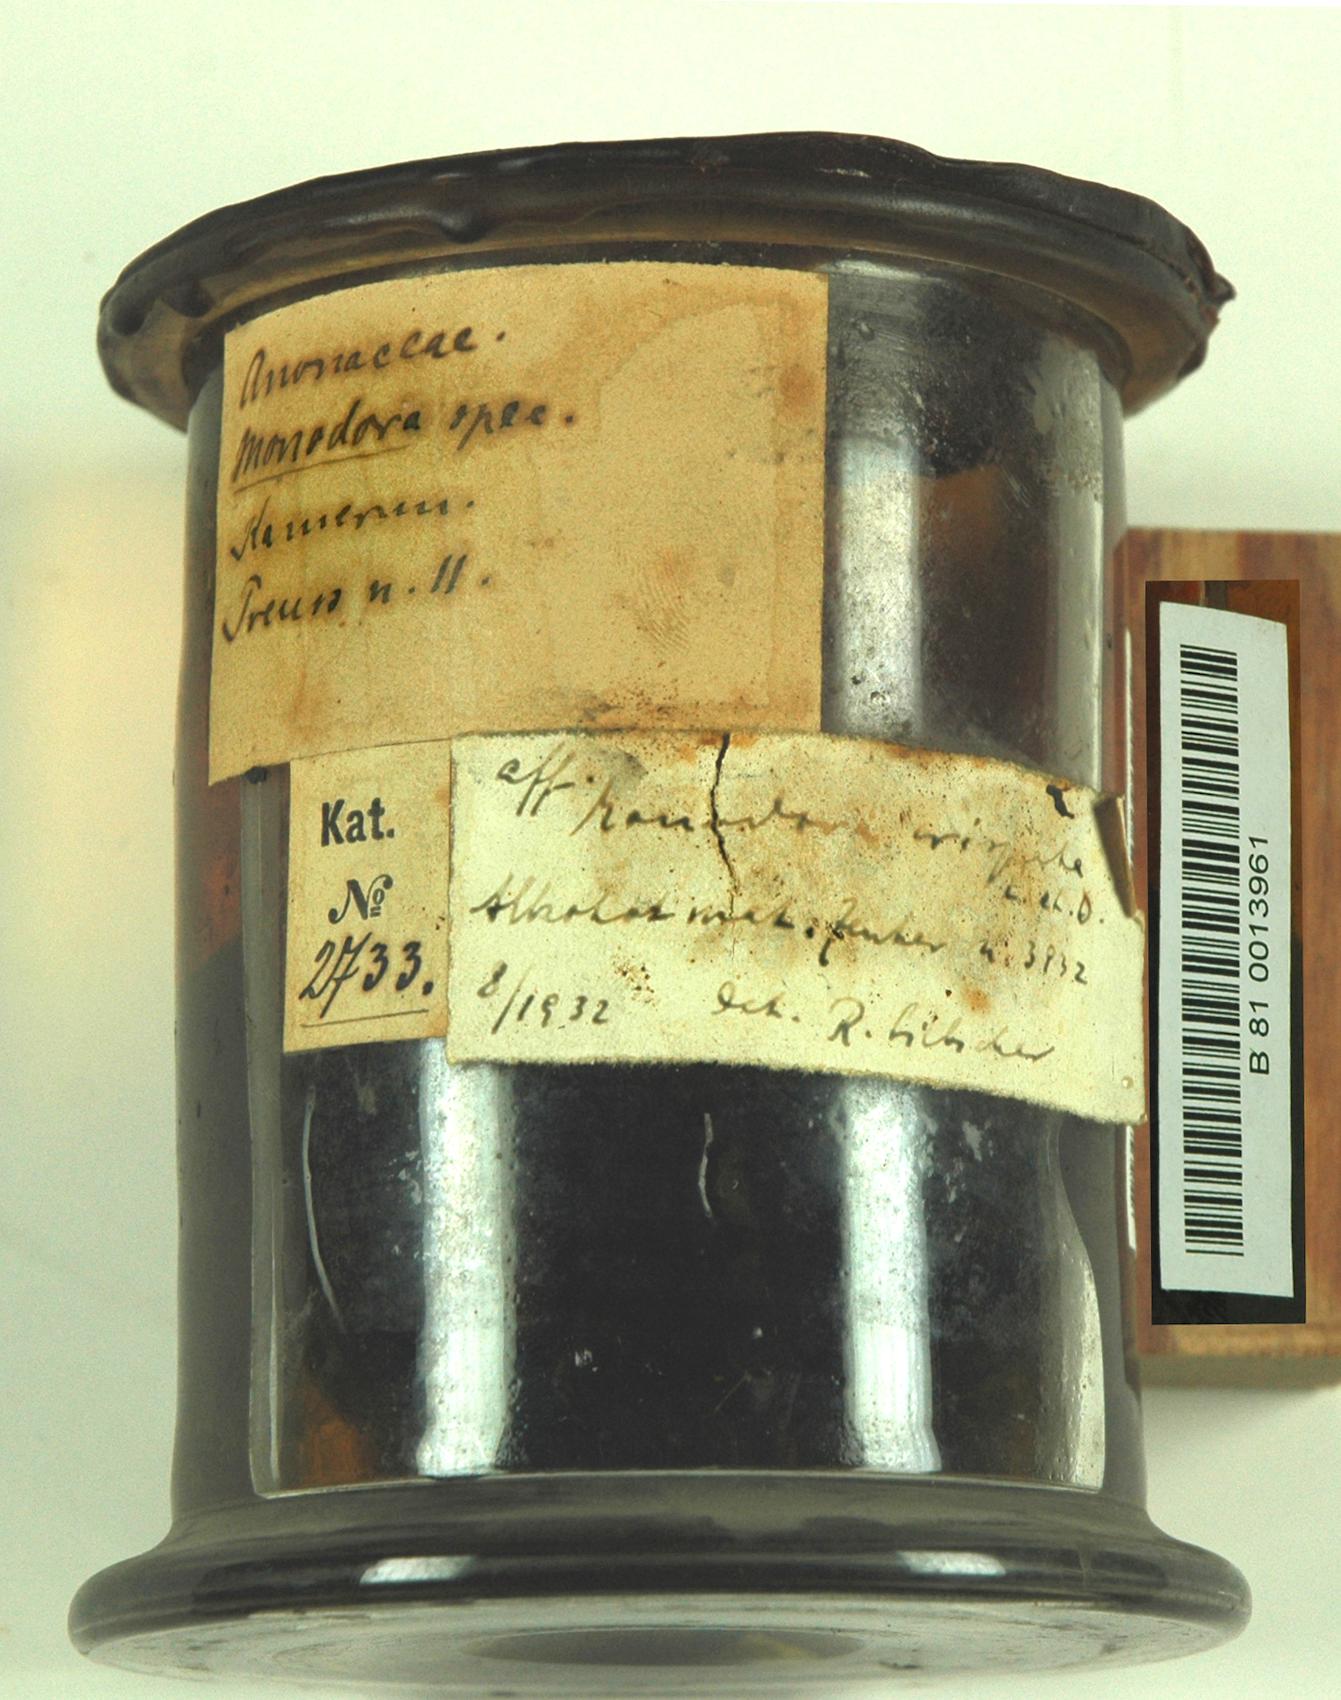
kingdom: Plantae
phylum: Tracheophyta
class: Magnoliopsida
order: Magnoliales
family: Annonaceae
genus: Monodora
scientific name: Monodora
